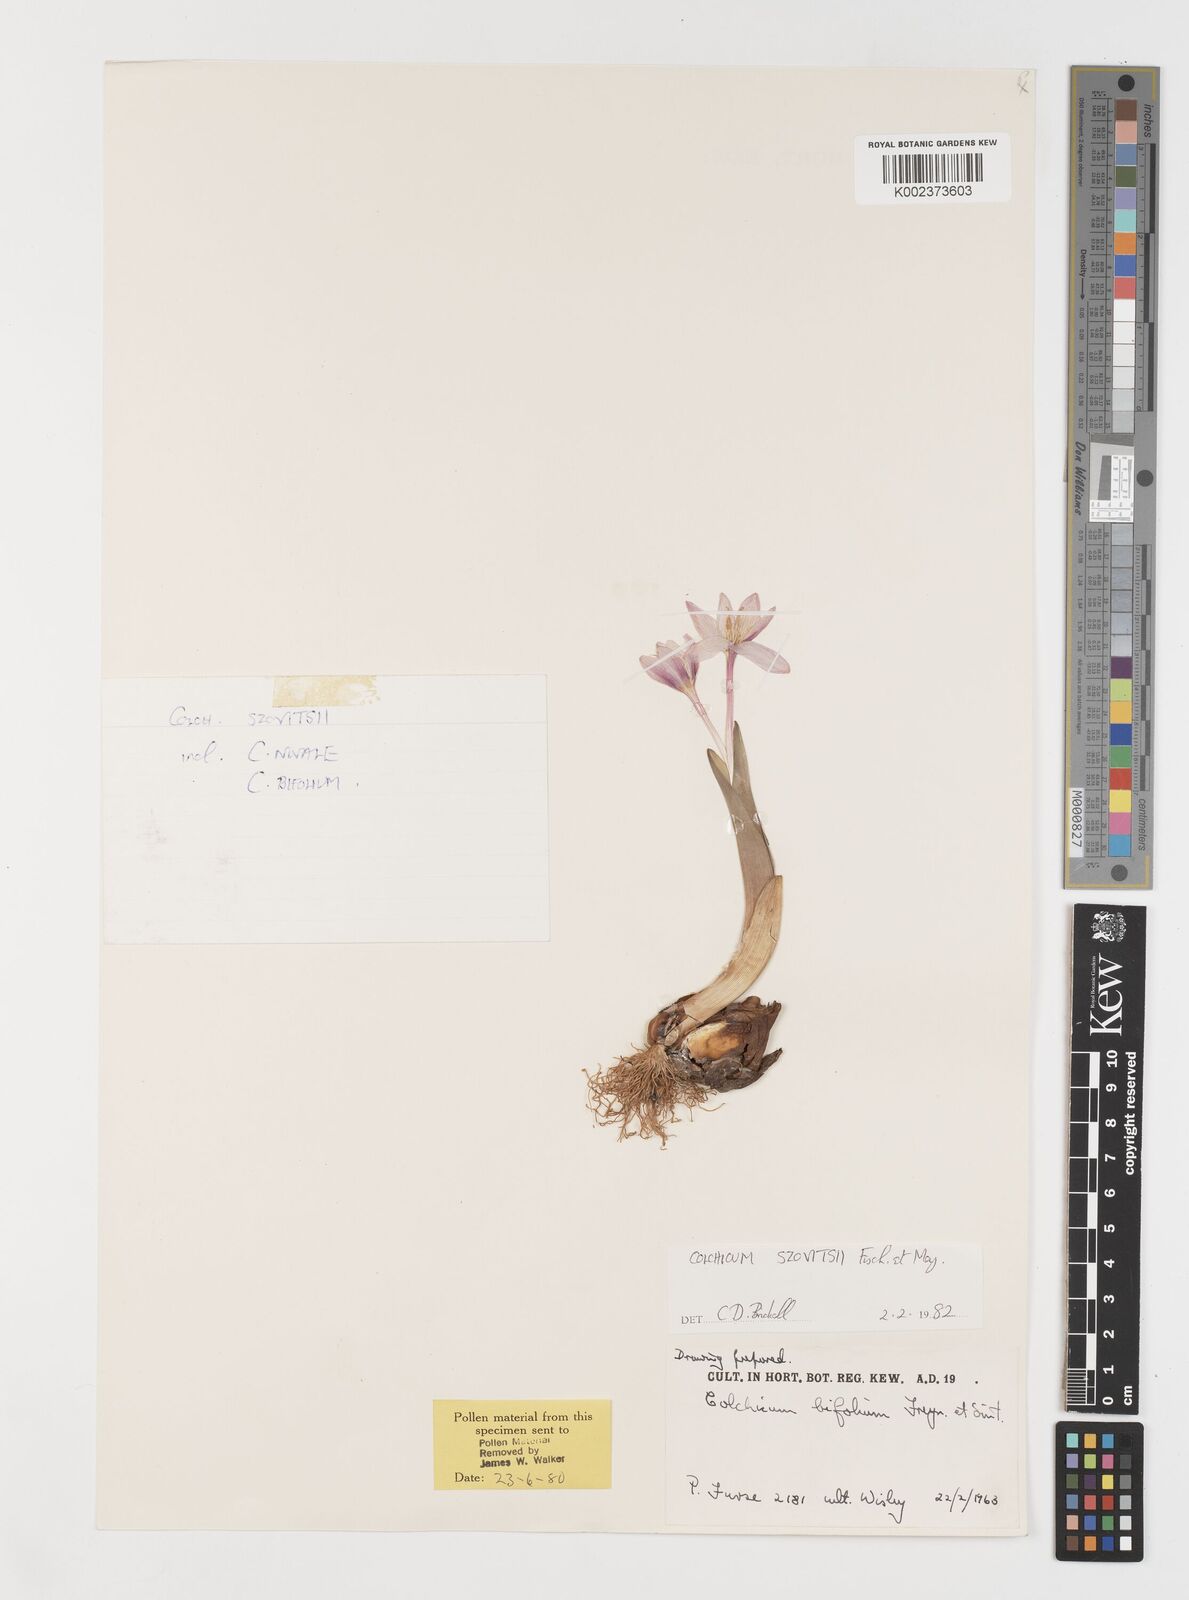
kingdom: Plantae
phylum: Tracheophyta
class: Liliopsida
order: Liliales
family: Colchicaceae
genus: Colchicum
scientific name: Colchicum szovitsii
